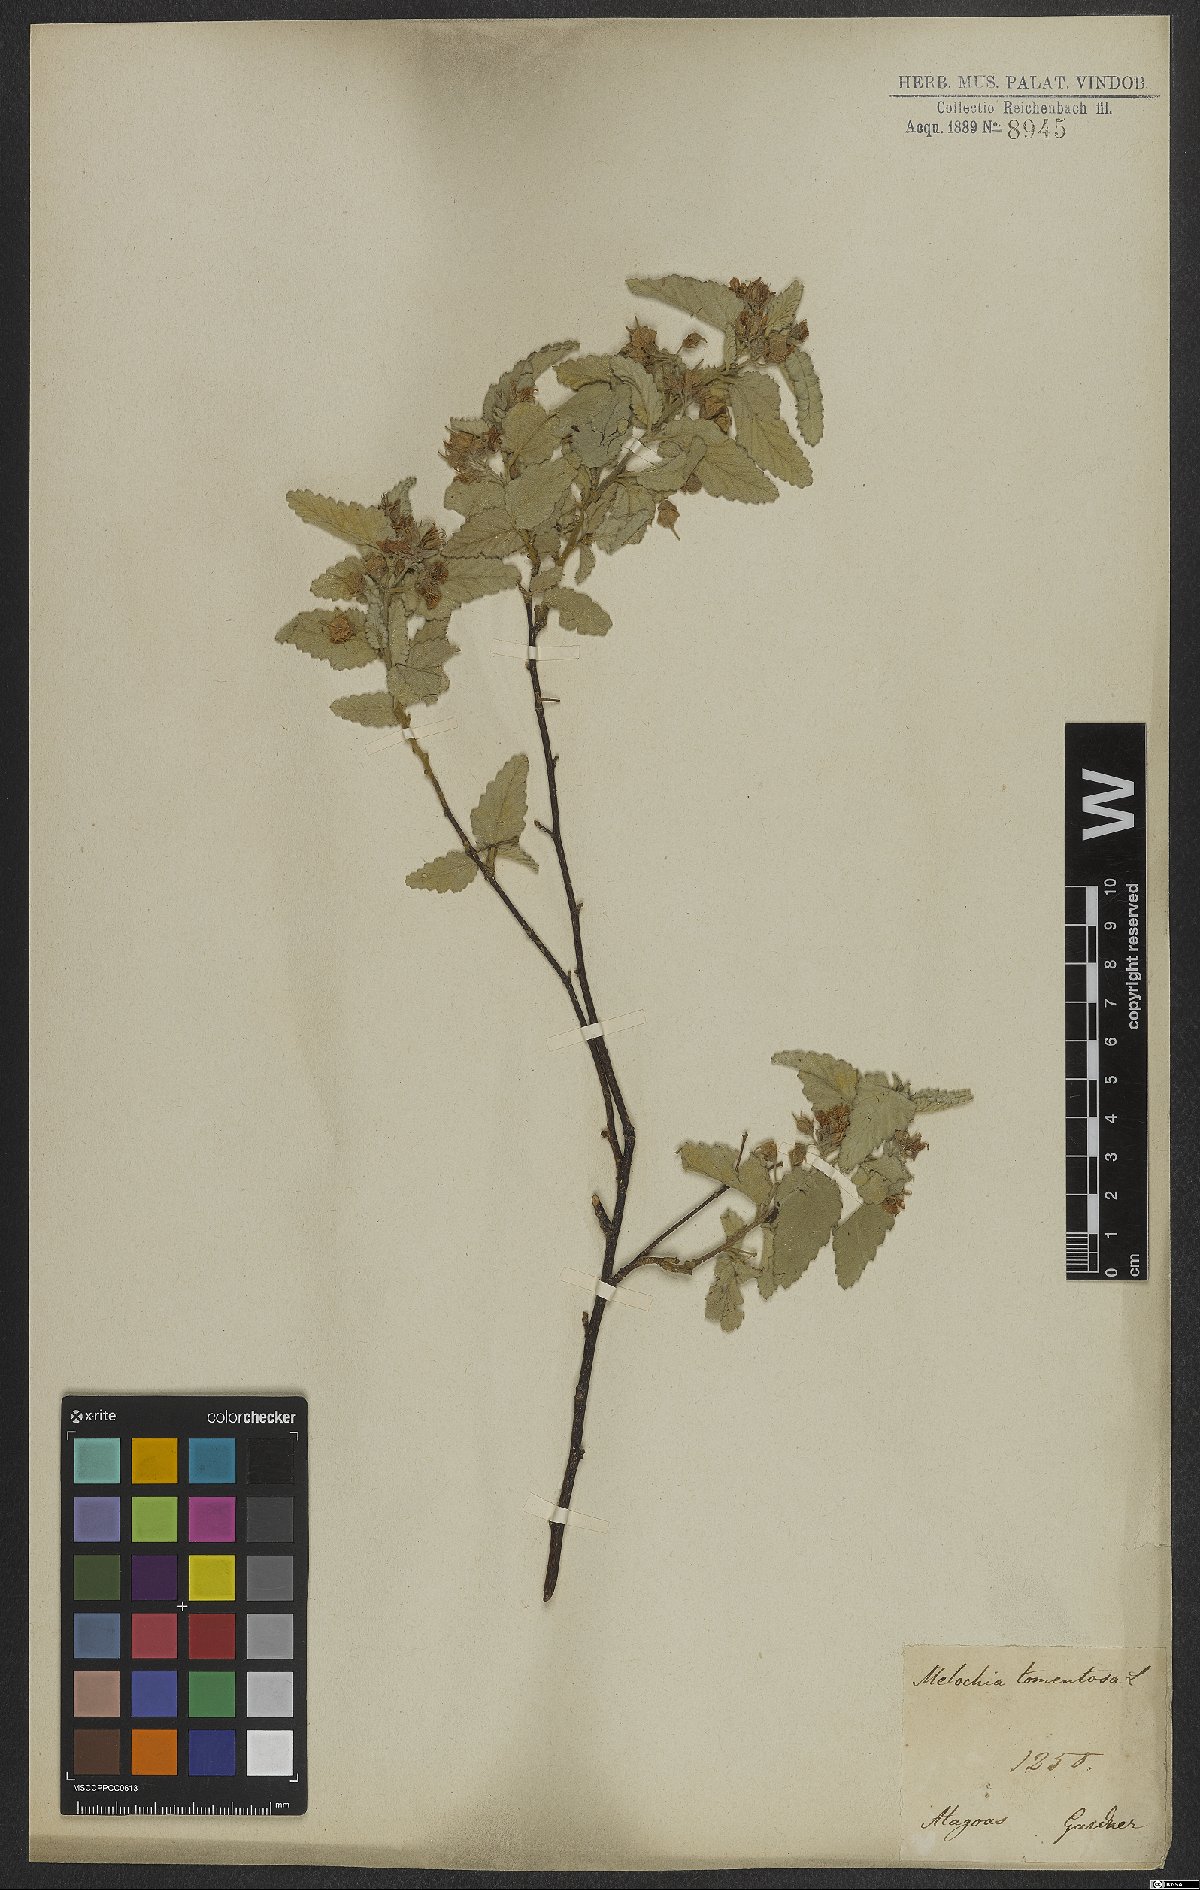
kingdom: Plantae
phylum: Tracheophyta
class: Magnoliopsida
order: Malvales
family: Malvaceae
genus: Melochia
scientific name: Melochia tomentosa
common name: Black torch
